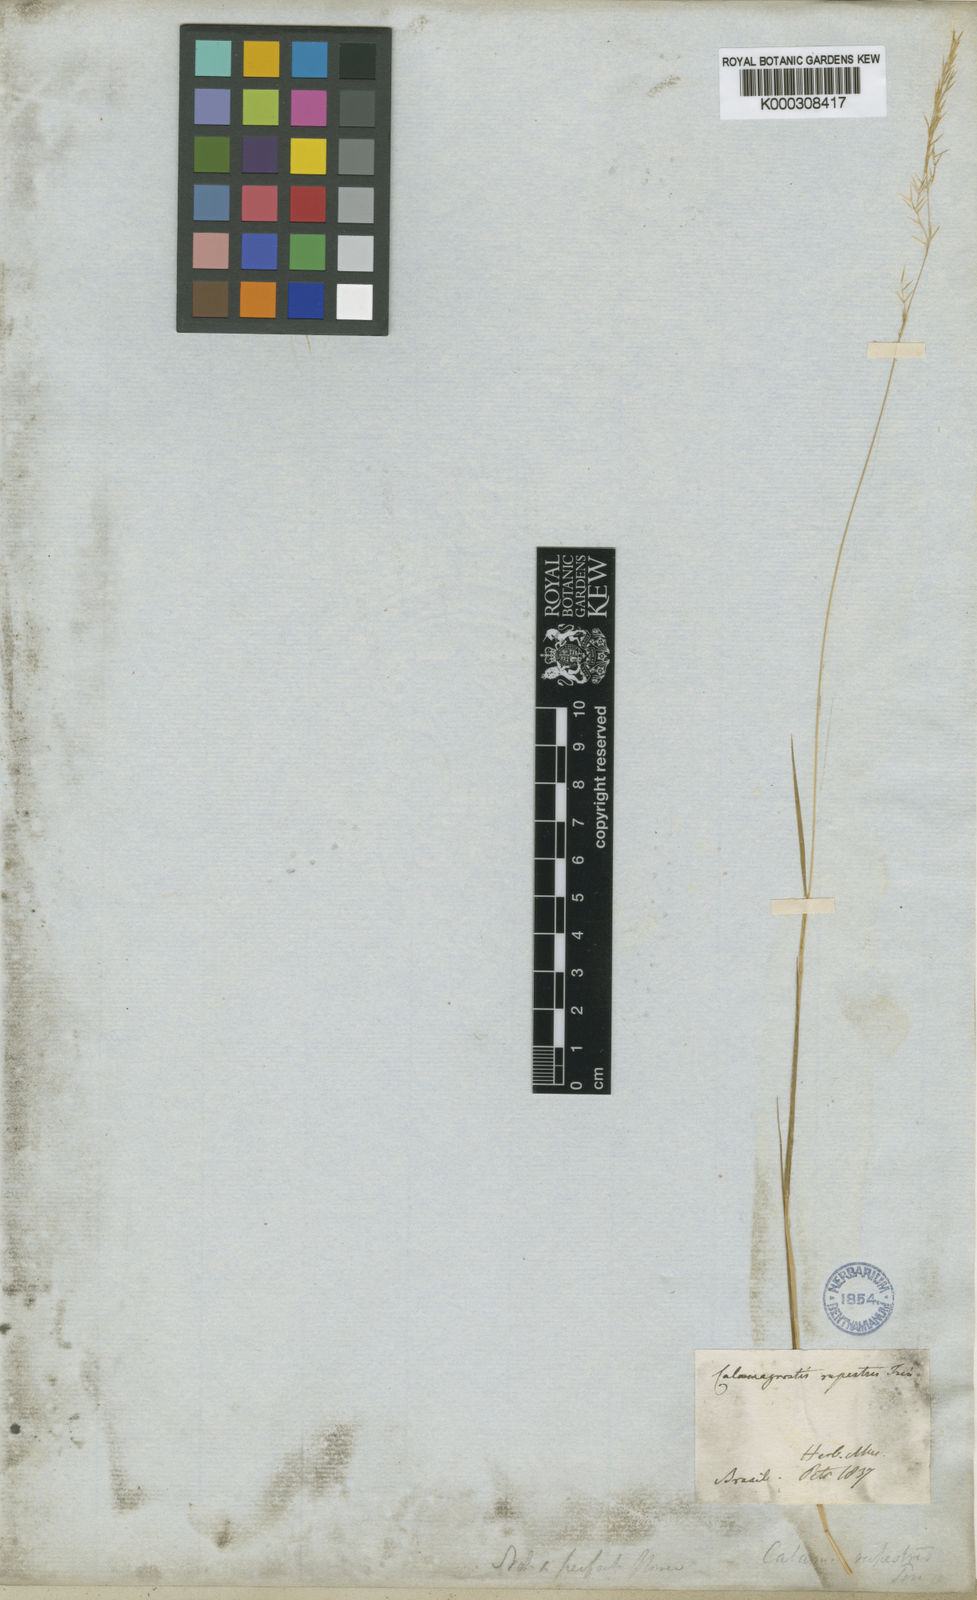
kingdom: Plantae
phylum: Tracheophyta
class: Liliopsida
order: Poales
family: Poaceae
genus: Cinnagrostis
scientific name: Cinnagrostis rupestris
